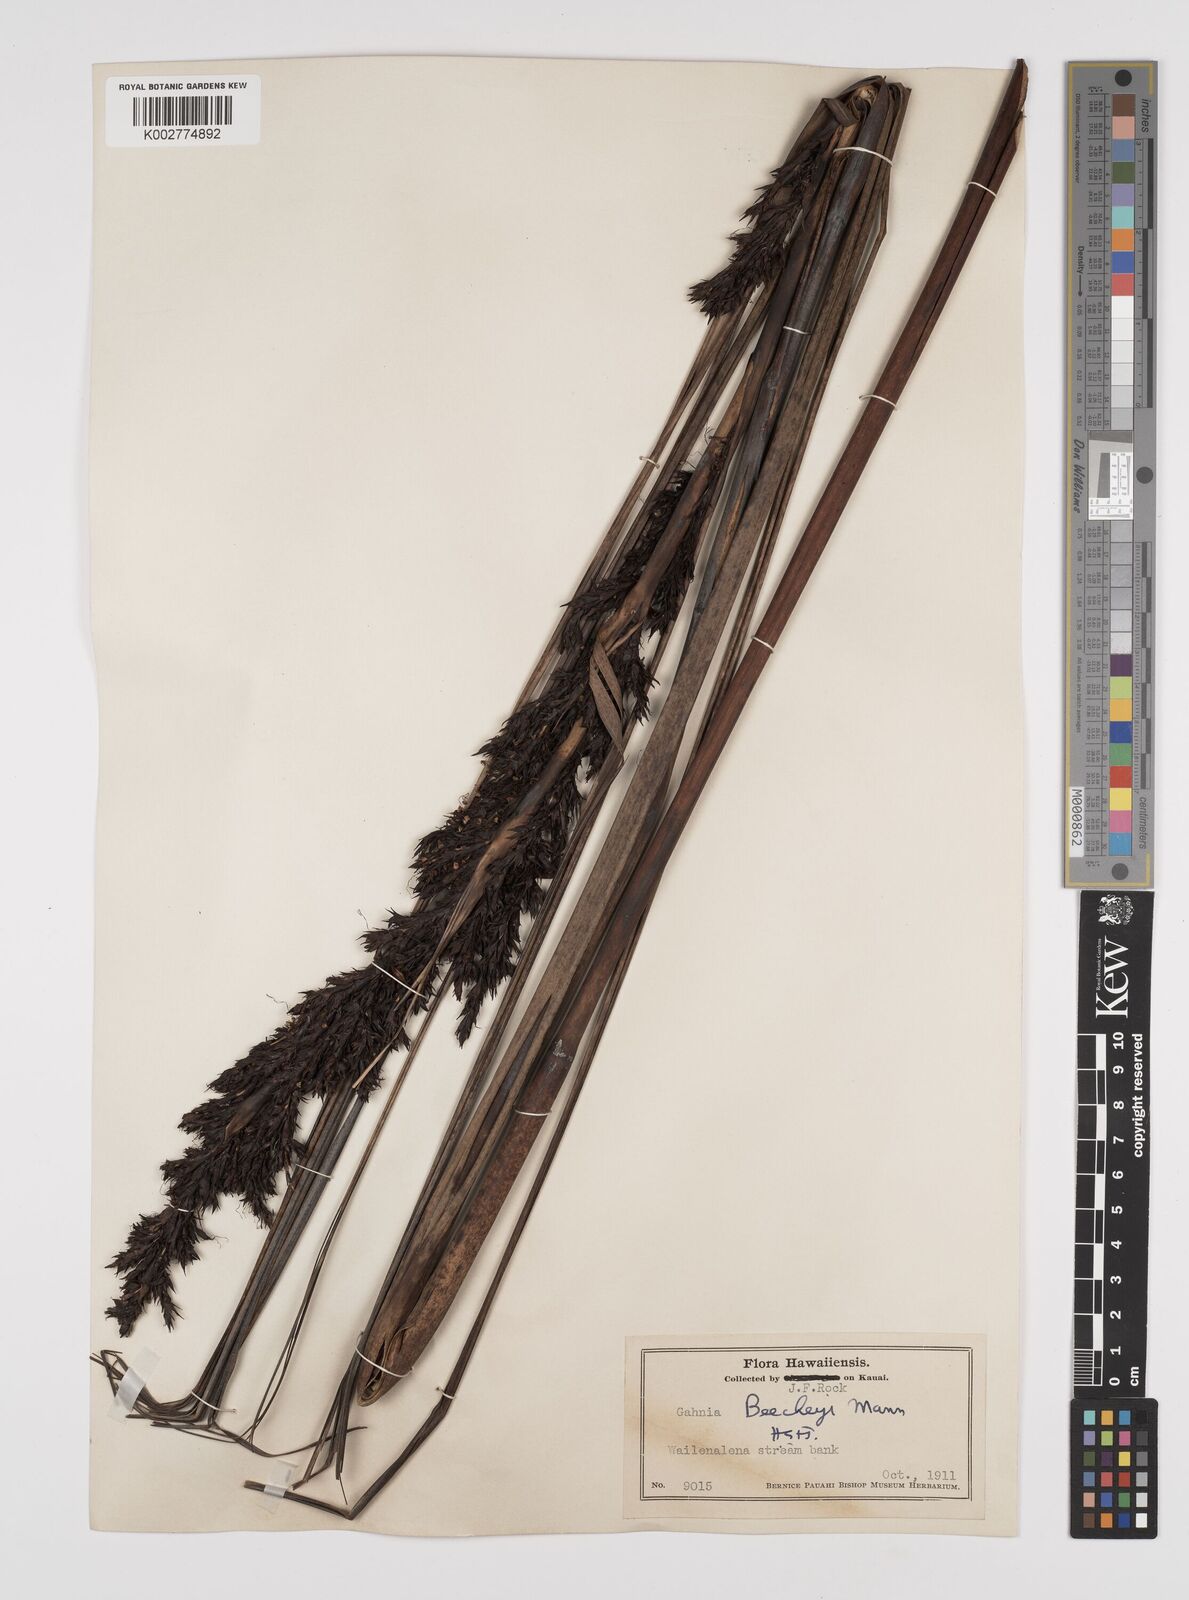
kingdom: Plantae
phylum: Tracheophyta
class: Liliopsida
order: Poales
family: Cyperaceae
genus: Gahnia
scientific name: Gahnia beecheyi
